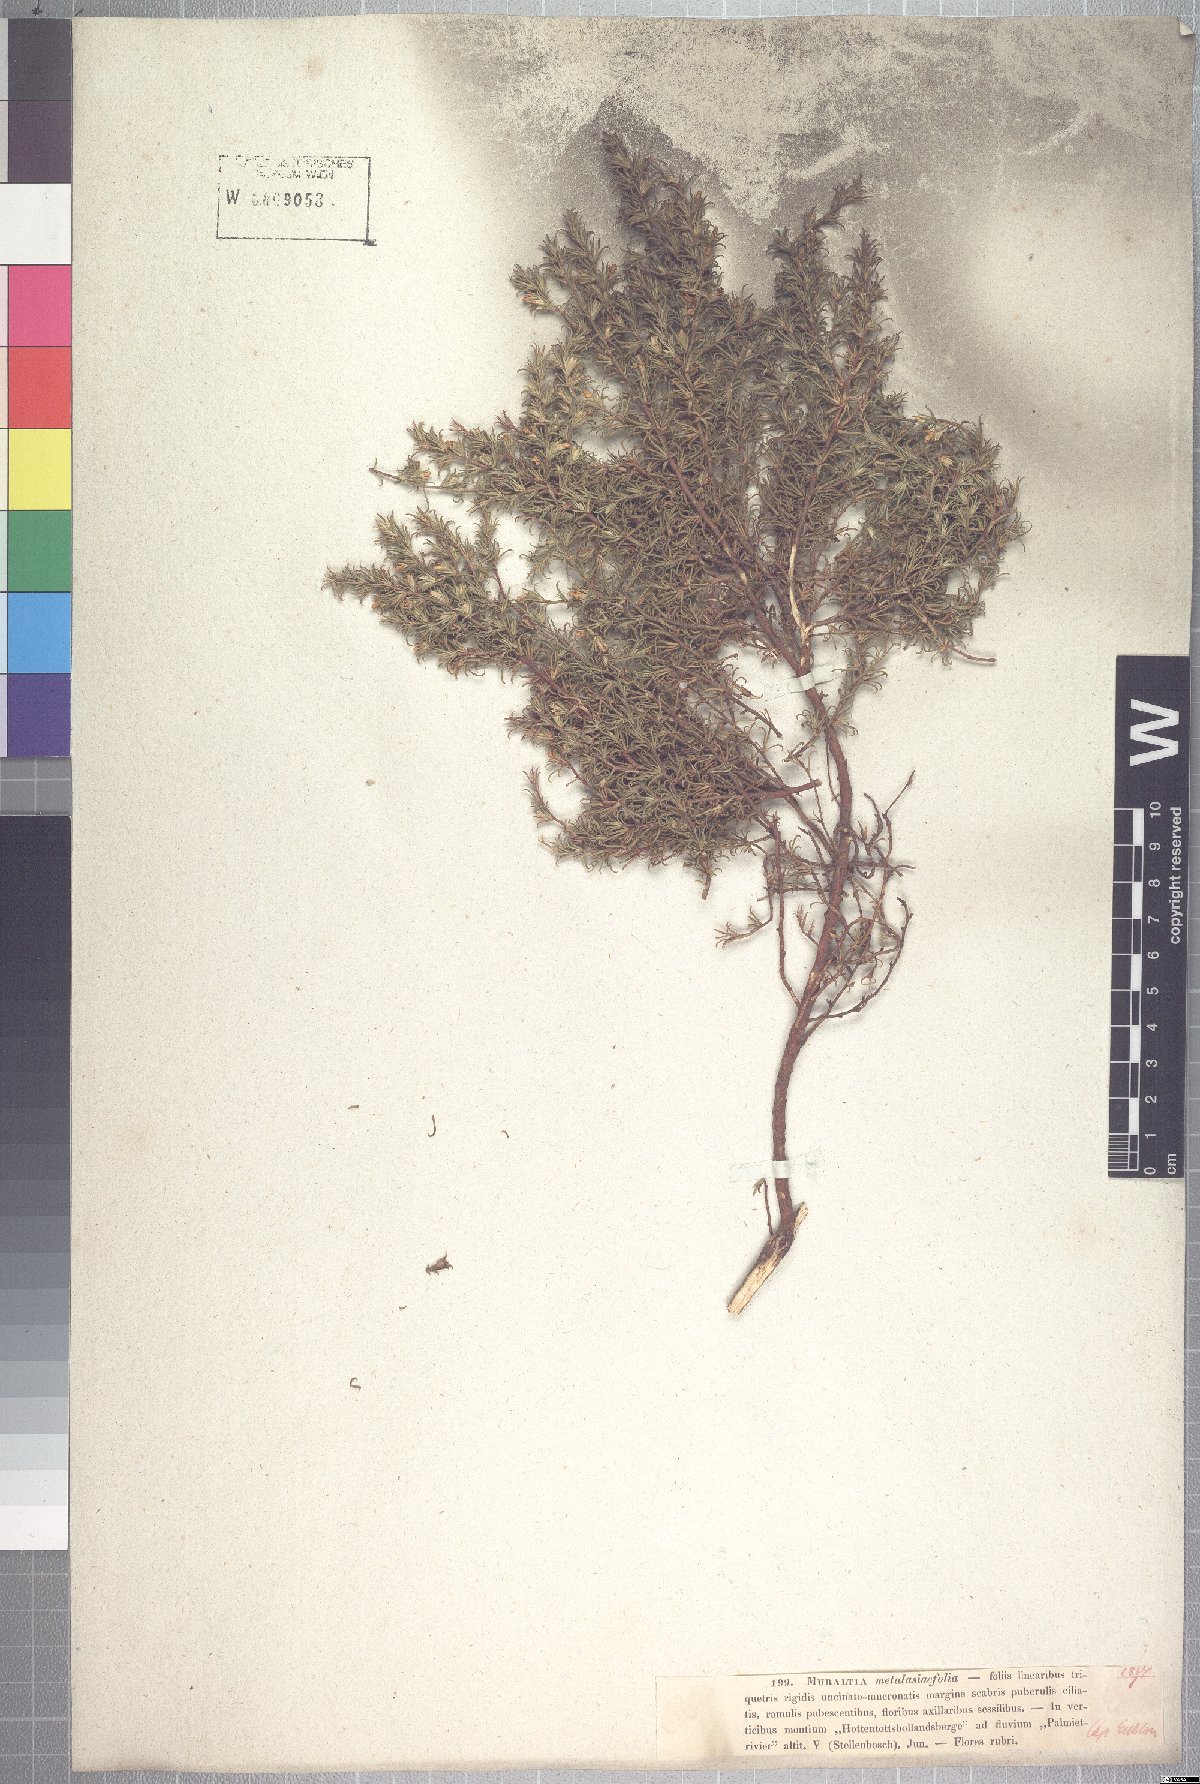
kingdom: Plantae
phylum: Tracheophyta
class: Magnoliopsida
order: Fabales
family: Polygalaceae
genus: Muraltia
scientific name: Muraltia rubeacea
